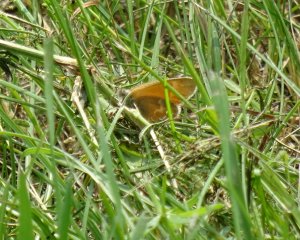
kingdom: Animalia
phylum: Arthropoda
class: Insecta
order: Lepidoptera
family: Nymphalidae
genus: Coenonympha
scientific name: Coenonympha tullia
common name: Large Heath
